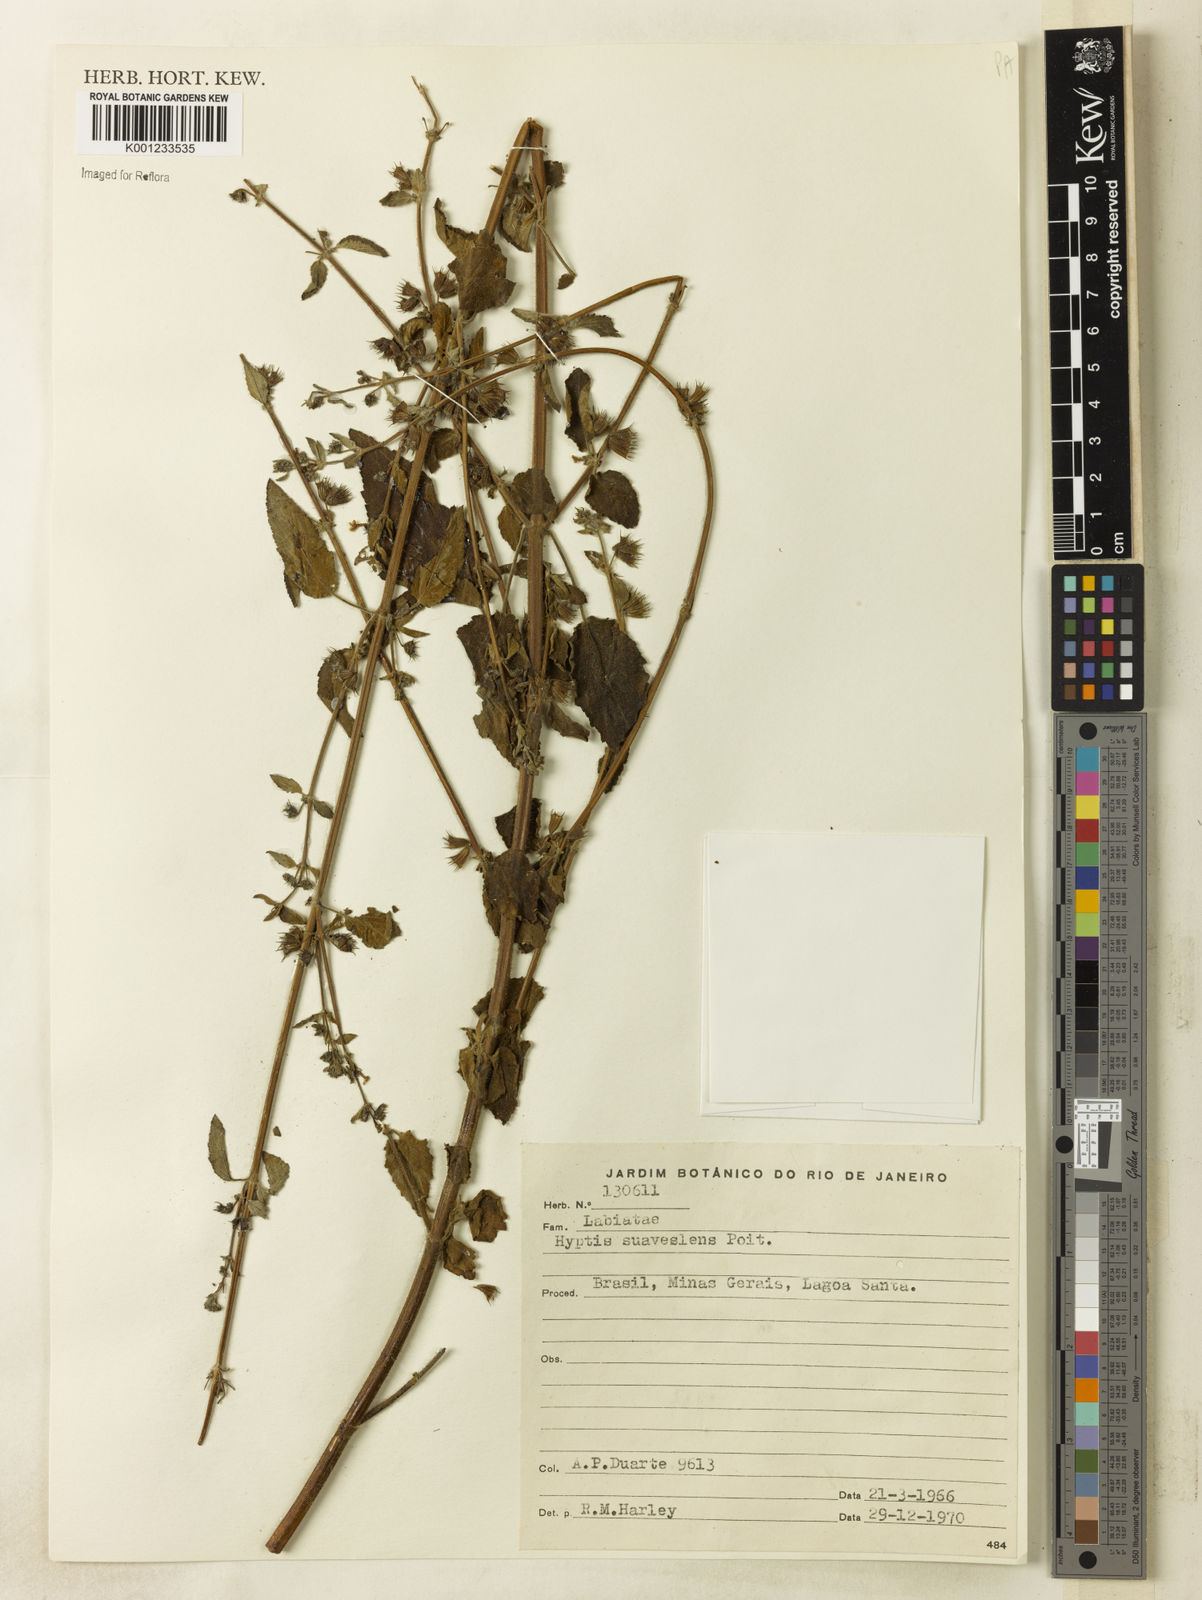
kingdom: Plantae
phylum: Tracheophyta
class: Magnoliopsida
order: Lamiales
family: Lamiaceae
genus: Mesosphaerum
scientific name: Mesosphaerum suaveolens
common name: Pignut
